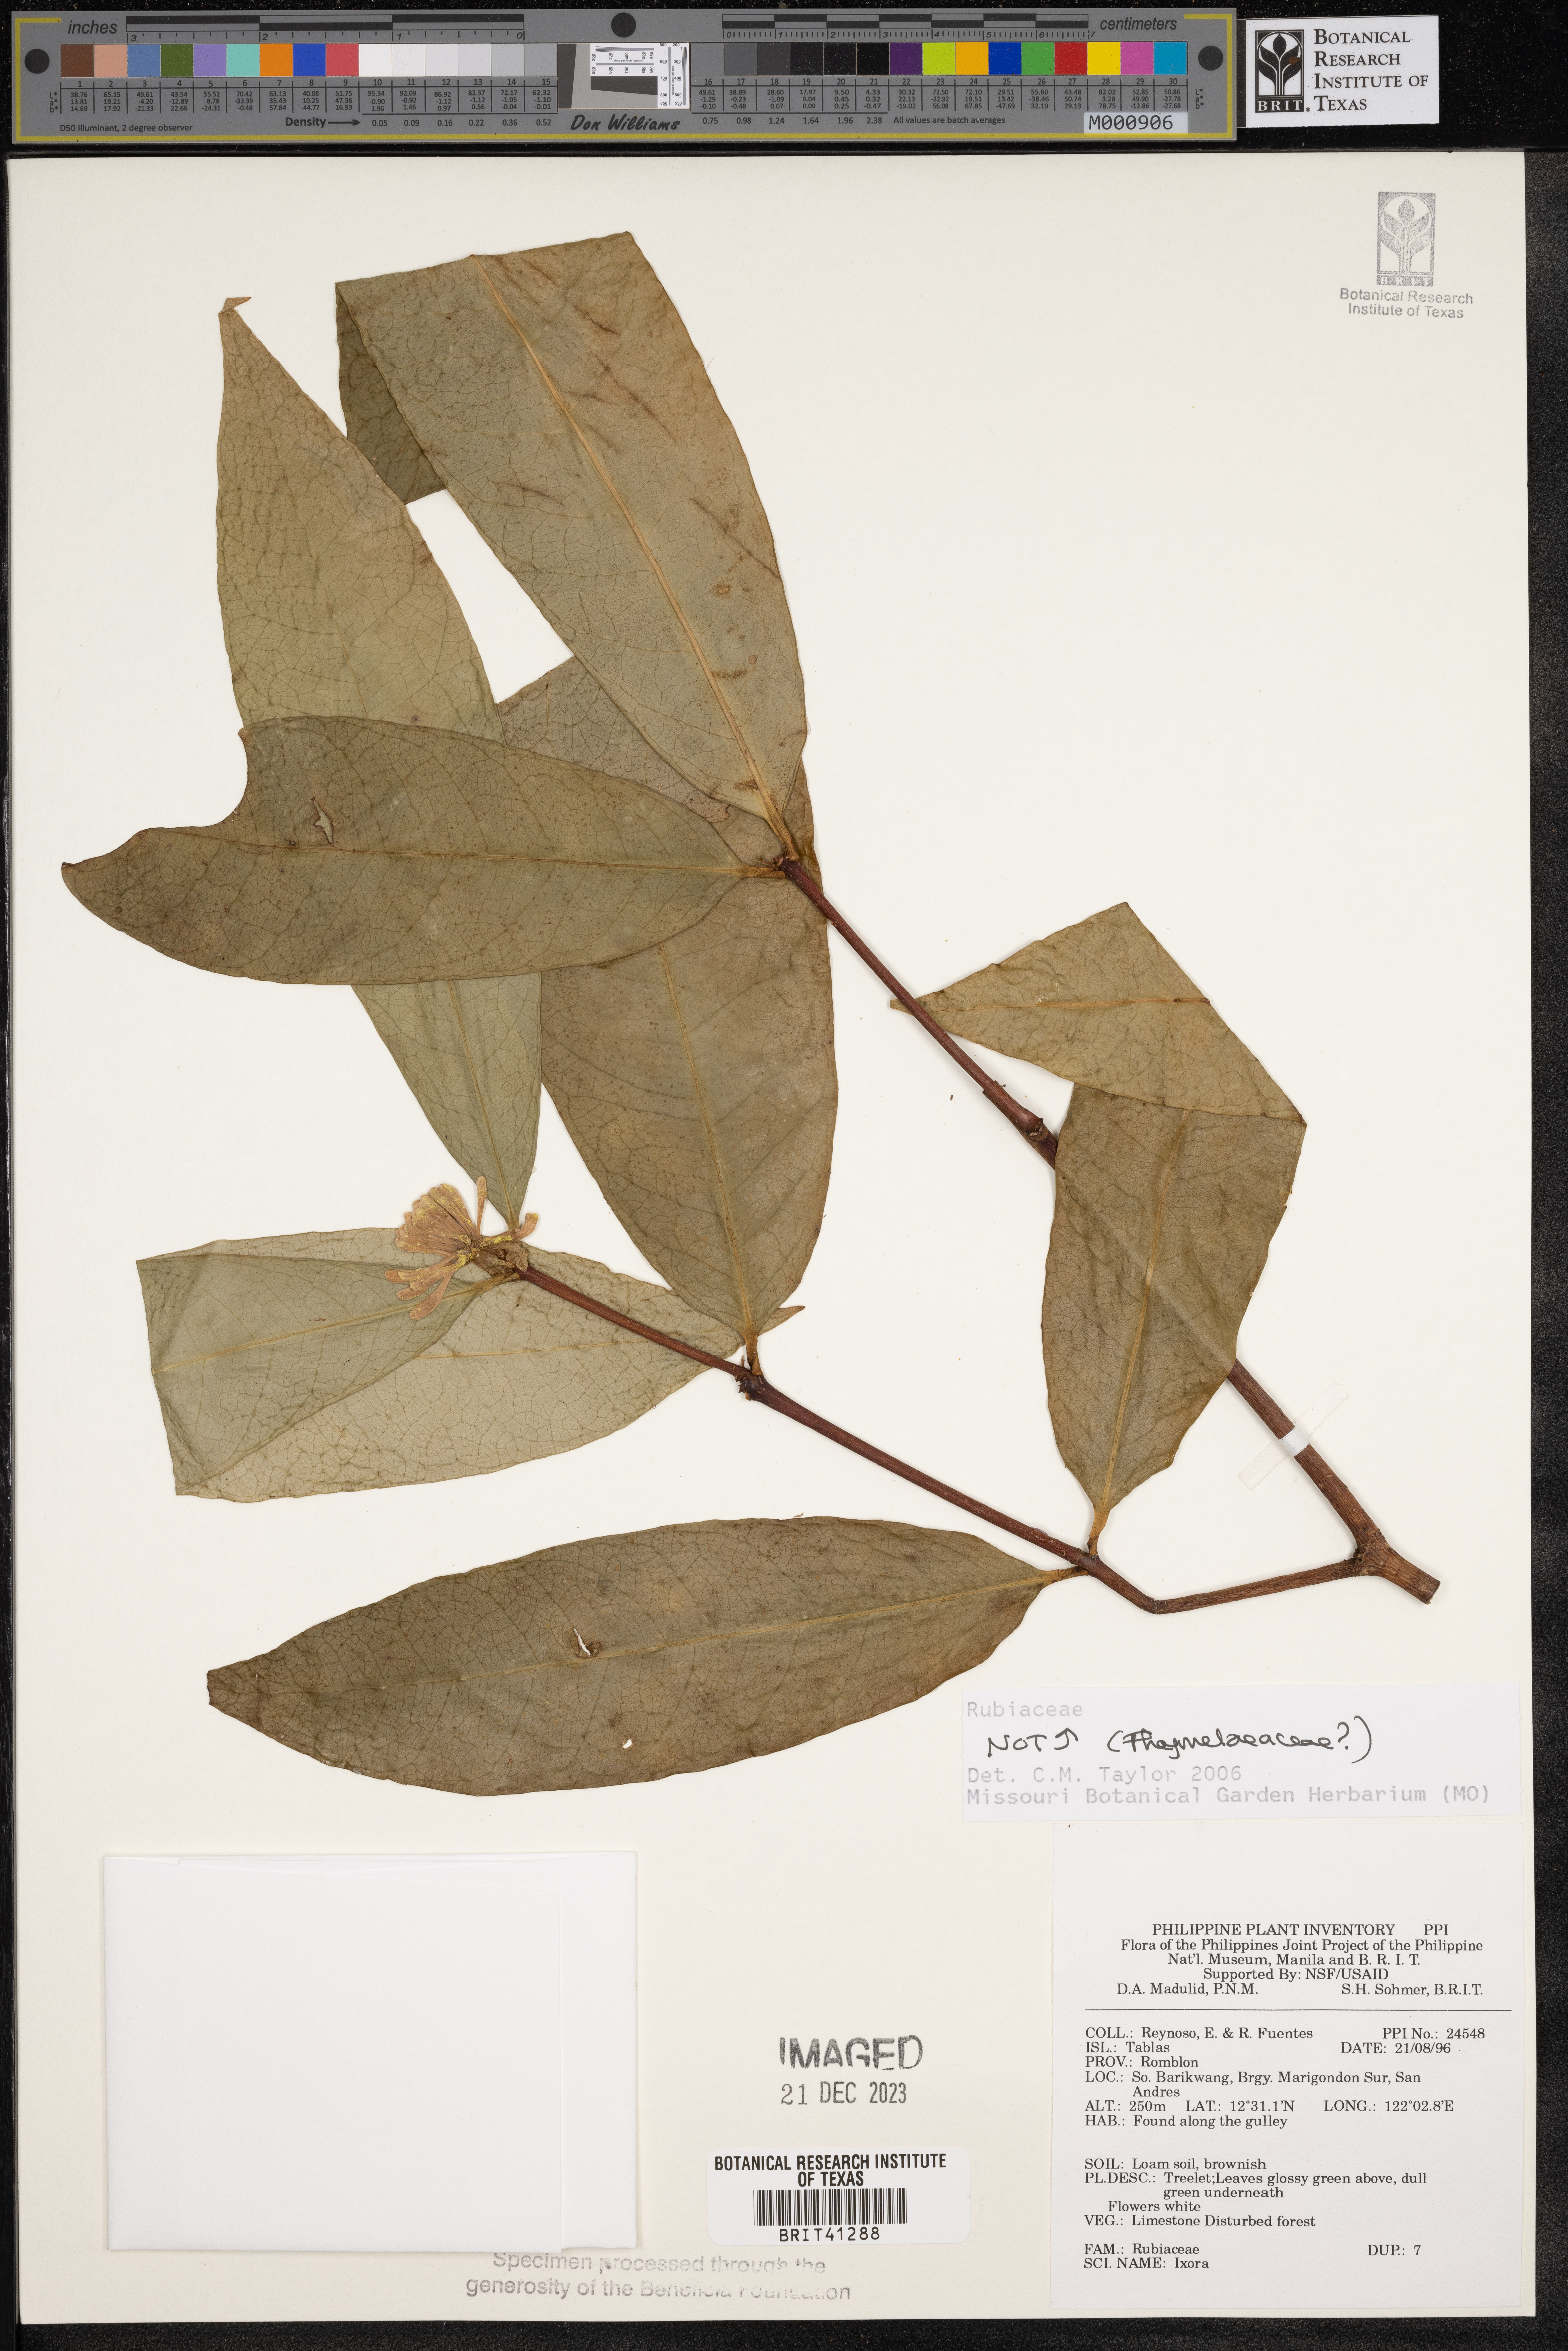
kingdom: Plantae
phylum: Tracheophyta
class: Magnoliopsida
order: Malvales
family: Thymelaeaceae
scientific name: Thymelaeaceae
